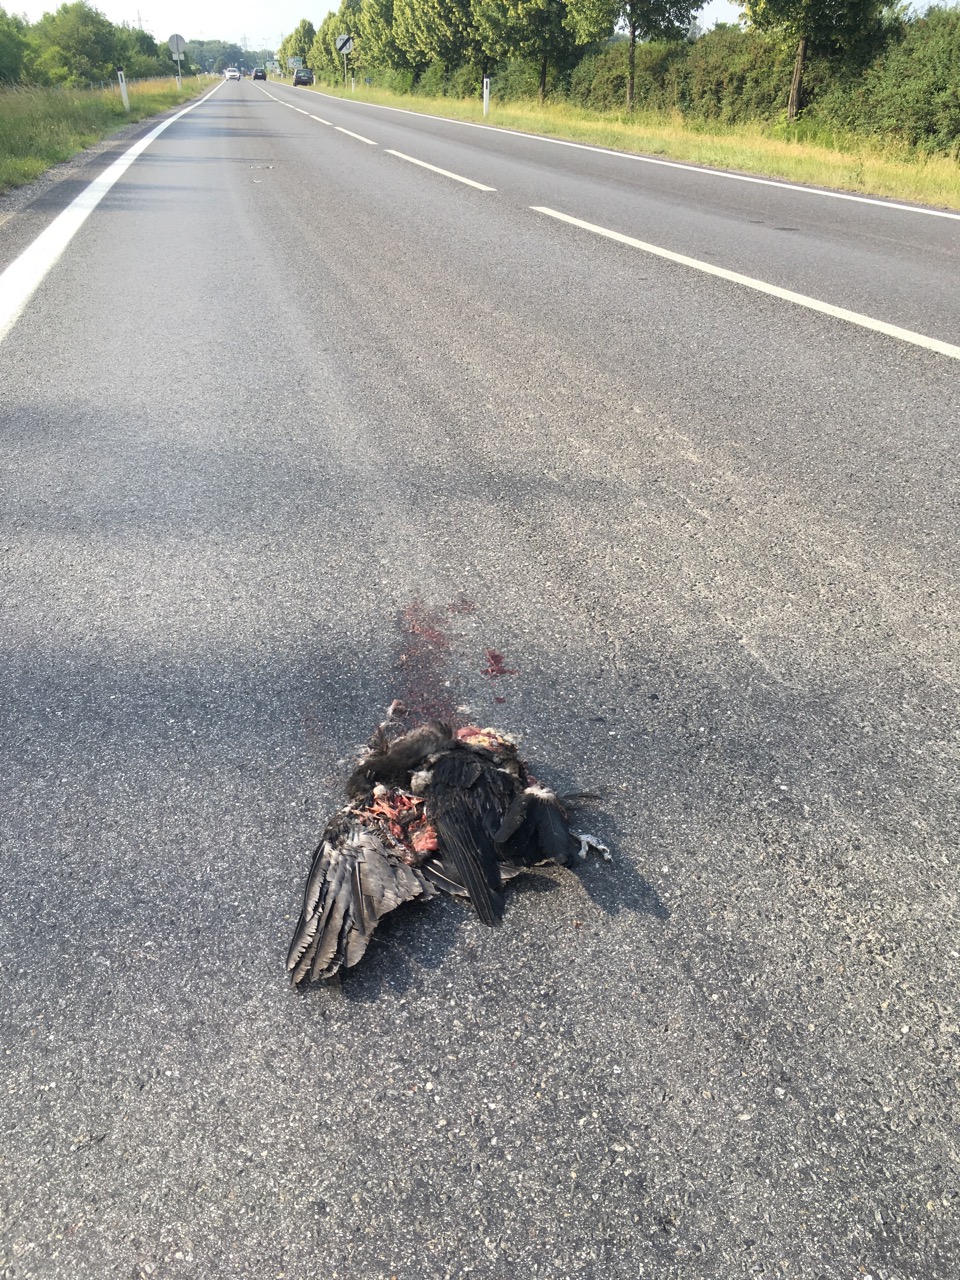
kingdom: Animalia
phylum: Chordata
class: Aves
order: Passeriformes
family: Corvidae
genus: Corvus
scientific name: Corvus corone
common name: Carrion crow
